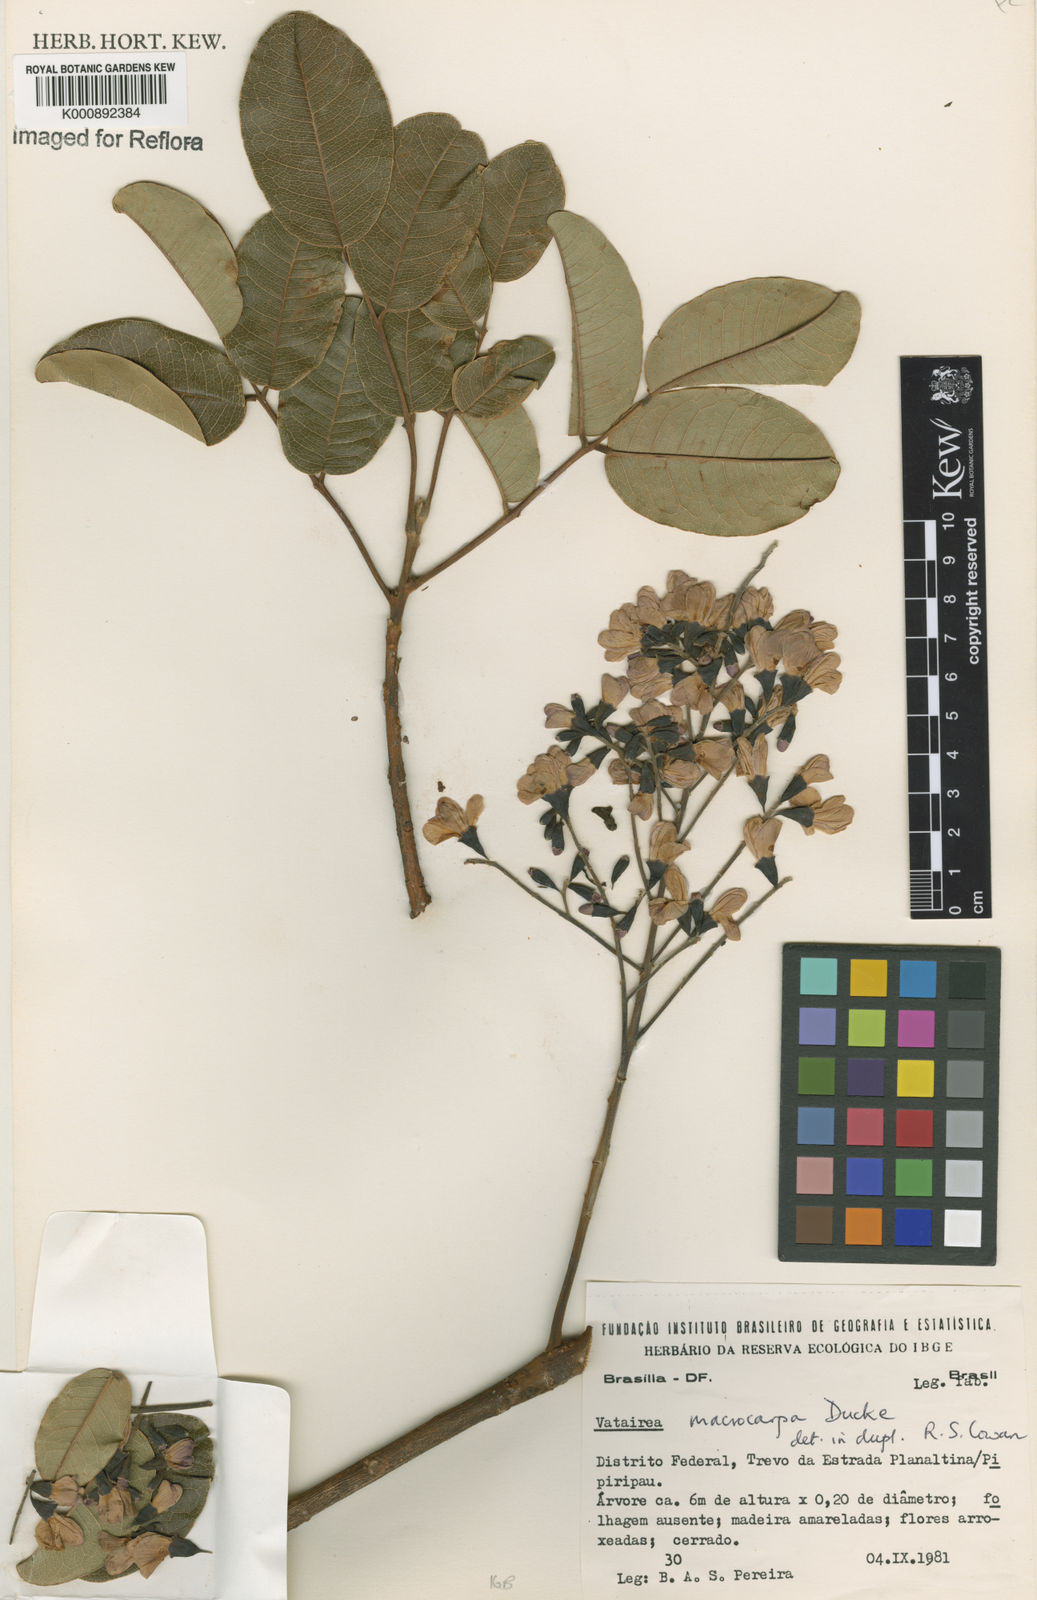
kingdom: Plantae
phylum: Tracheophyta
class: Magnoliopsida
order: Fabales
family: Fabaceae
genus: Vatairea
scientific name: Vatairea macrocarpa
